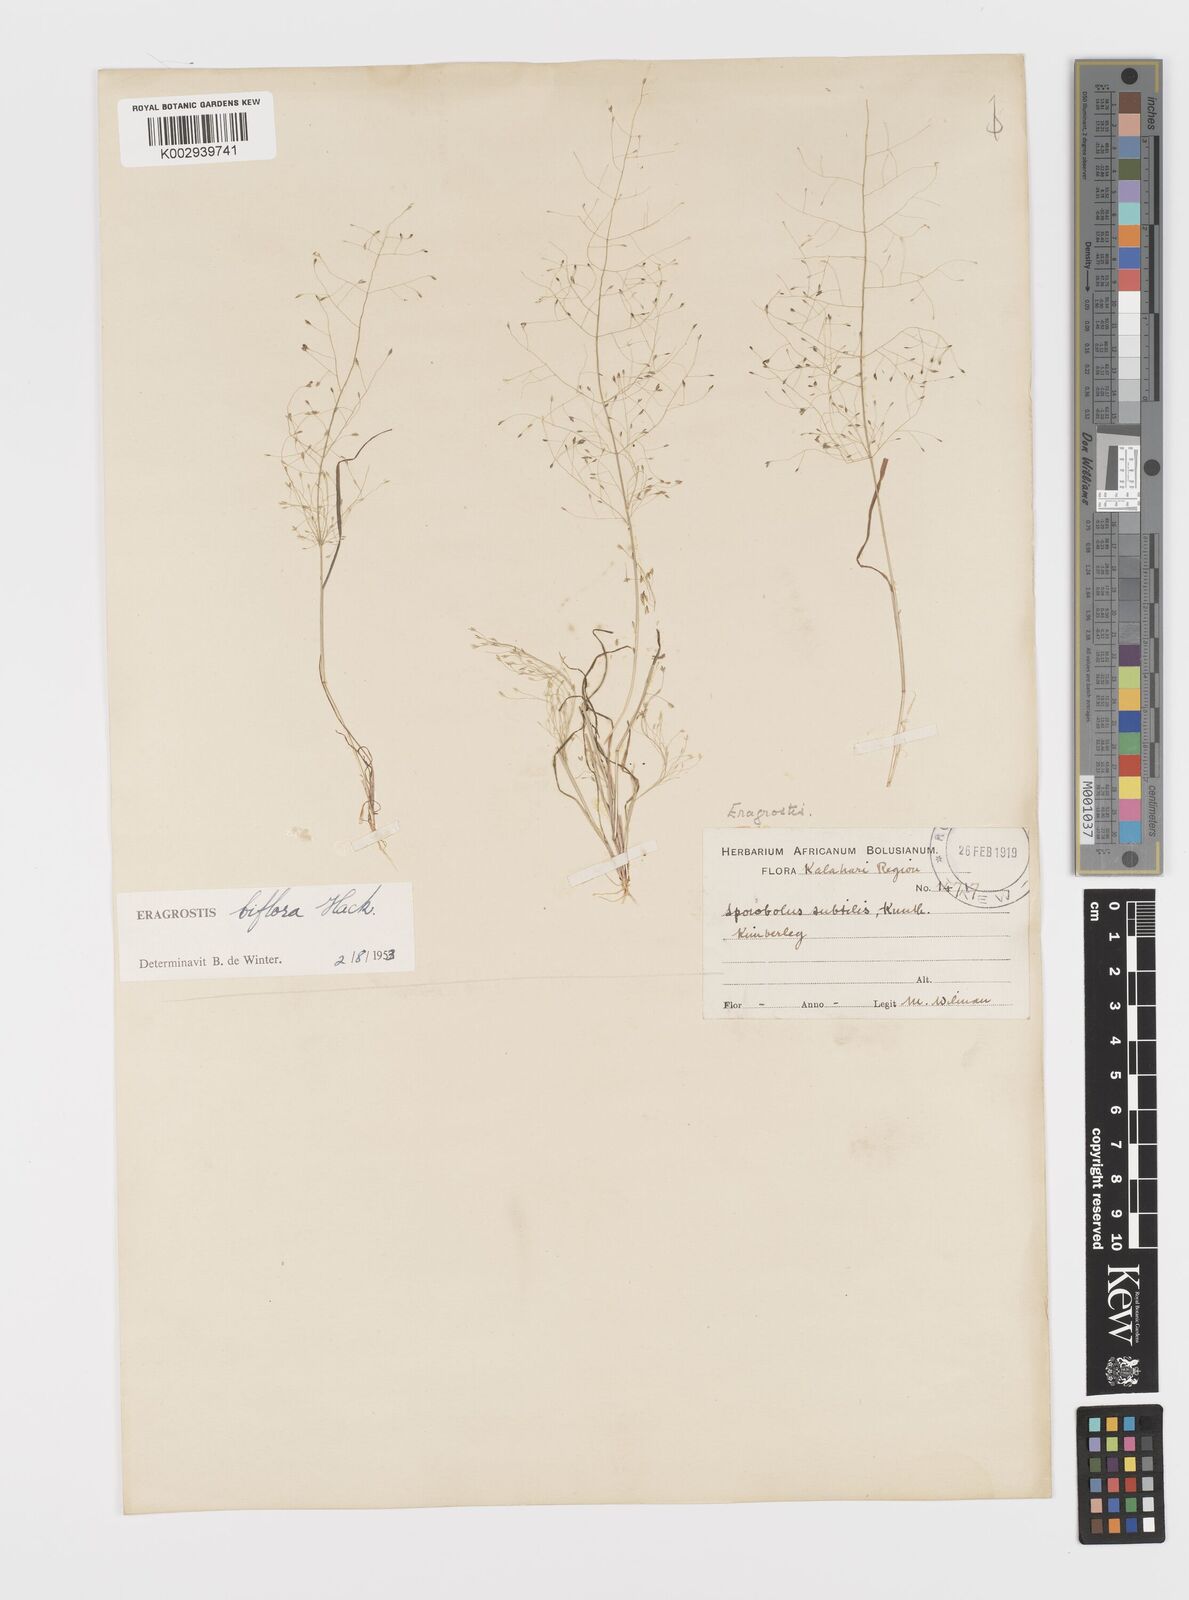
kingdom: Plantae
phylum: Tracheophyta
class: Liliopsida
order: Poales
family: Poaceae
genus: Eragrostis
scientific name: Eragrostis biflora
